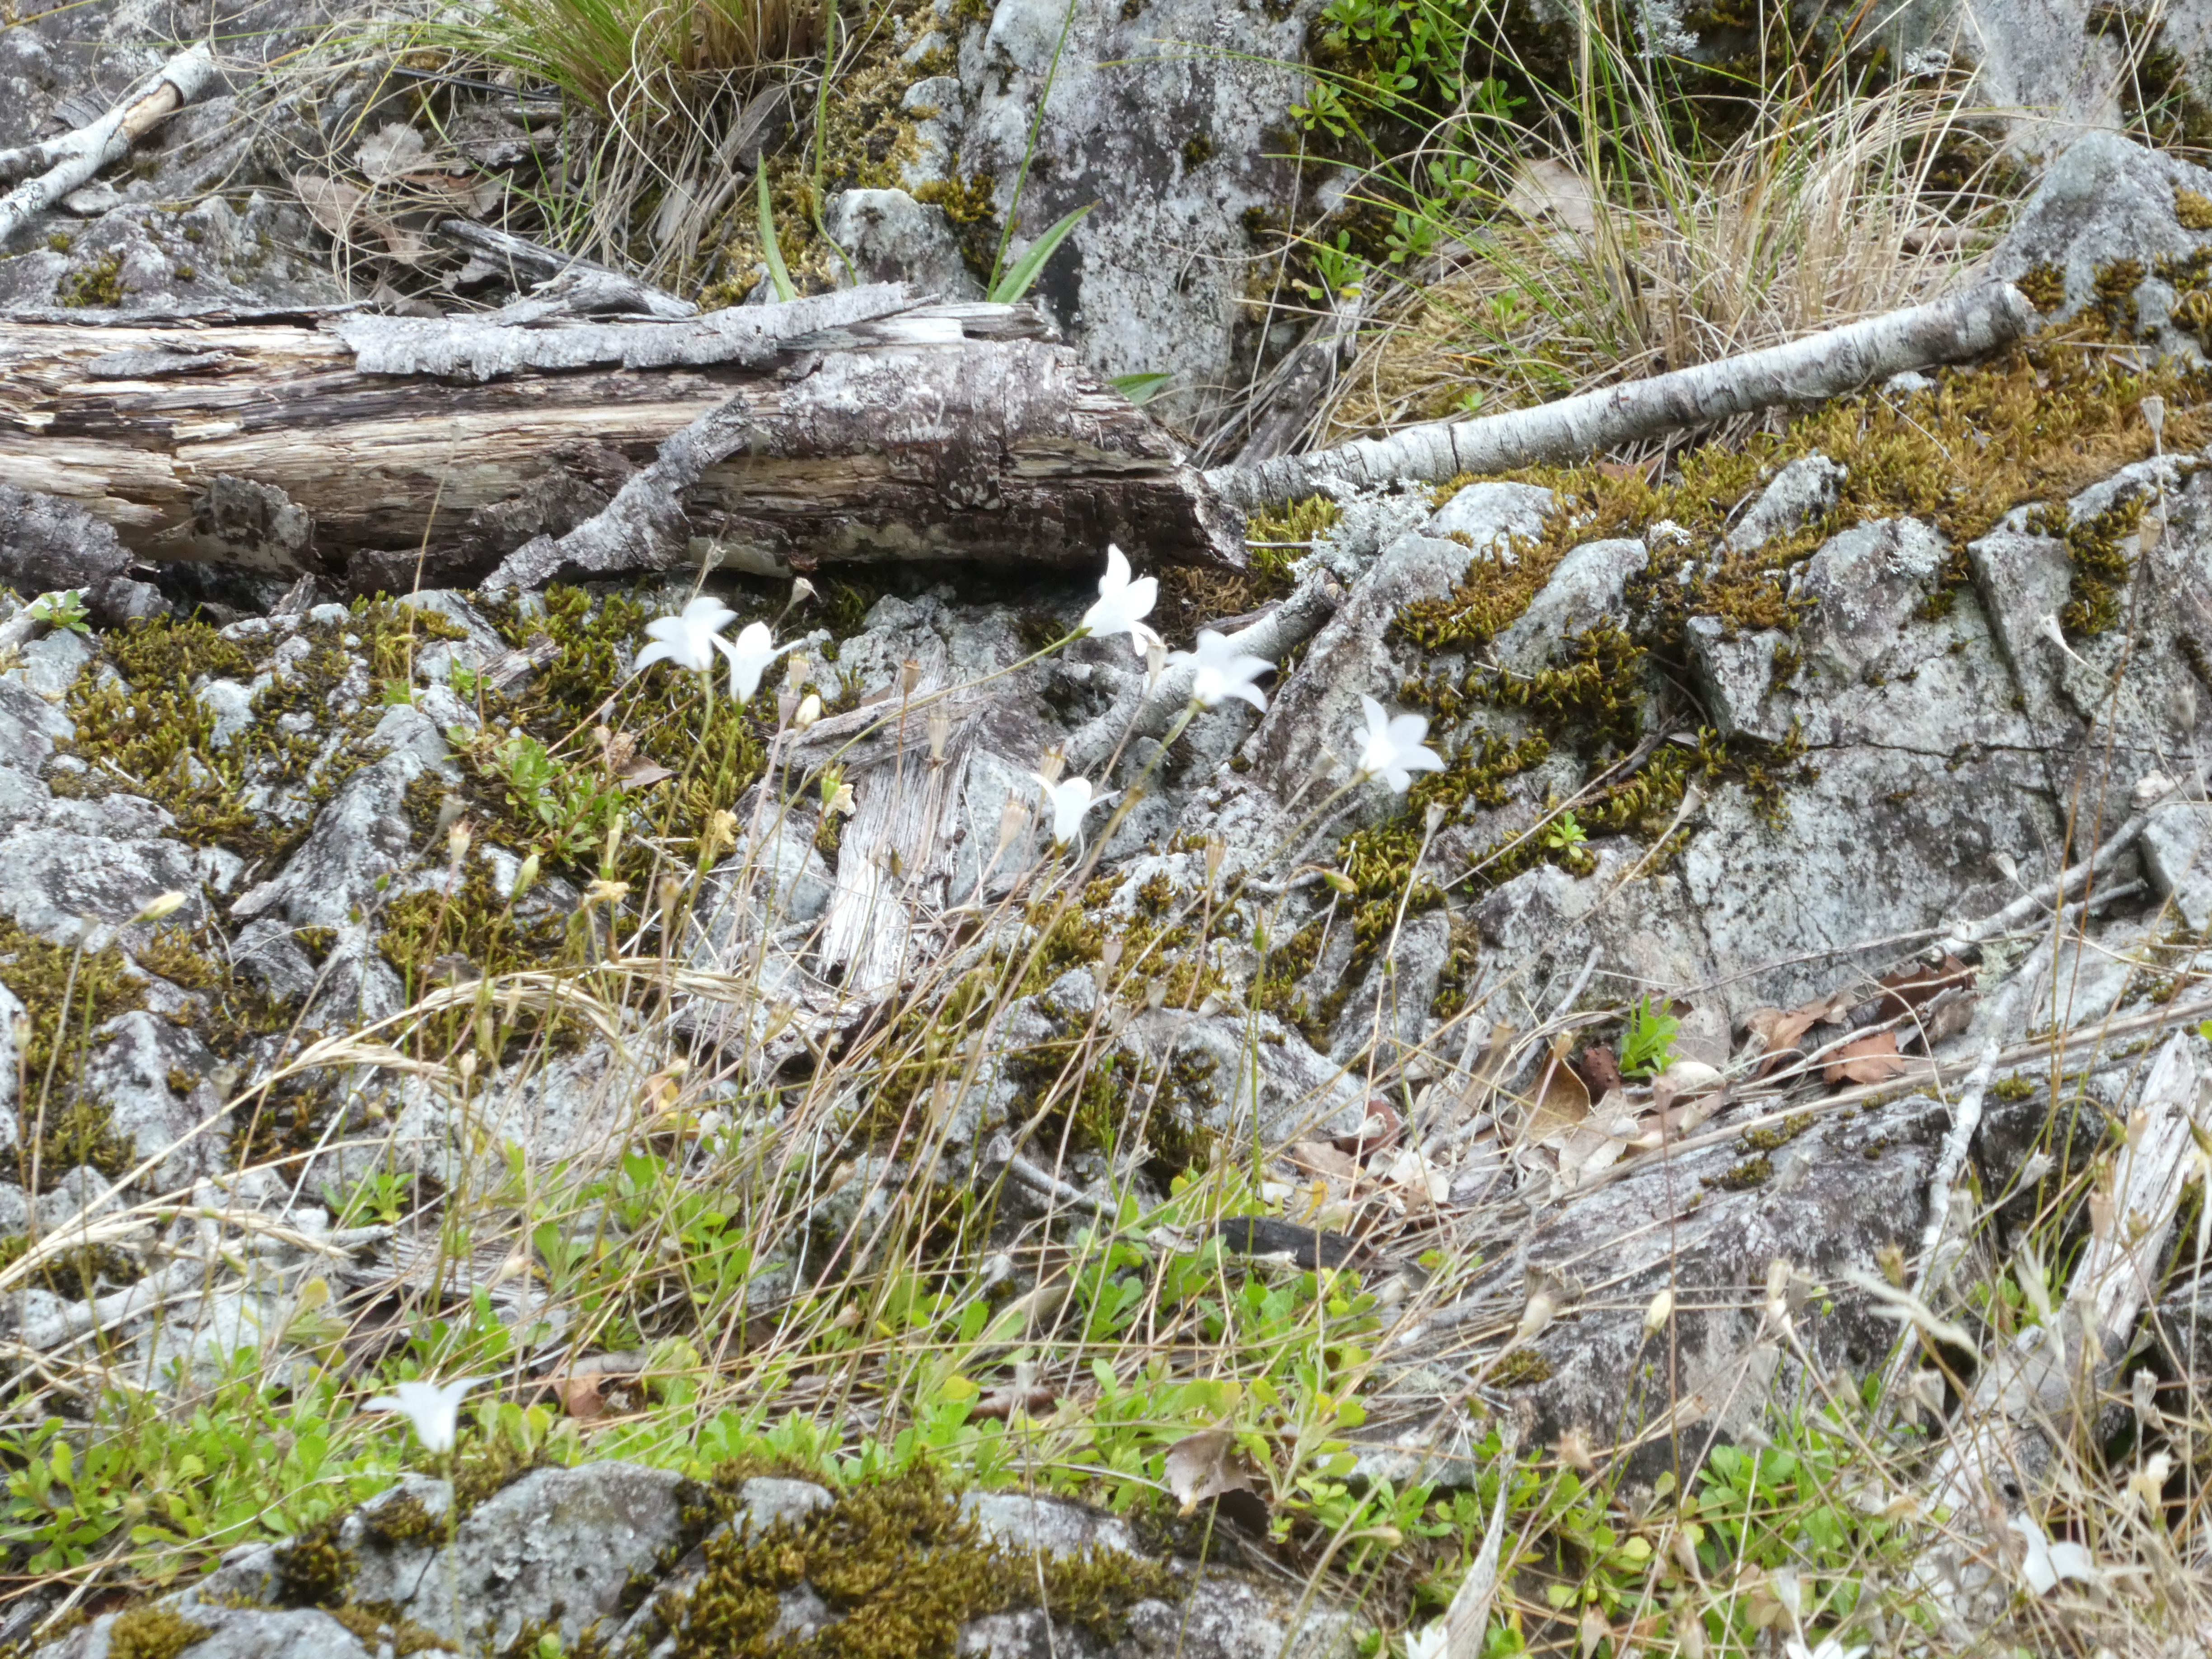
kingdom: Plantae
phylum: Tracheophyta
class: Magnoliopsida
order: Asterales
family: Campanulaceae
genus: Wahlenbergia
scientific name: Wahlenbergia albomarginata
